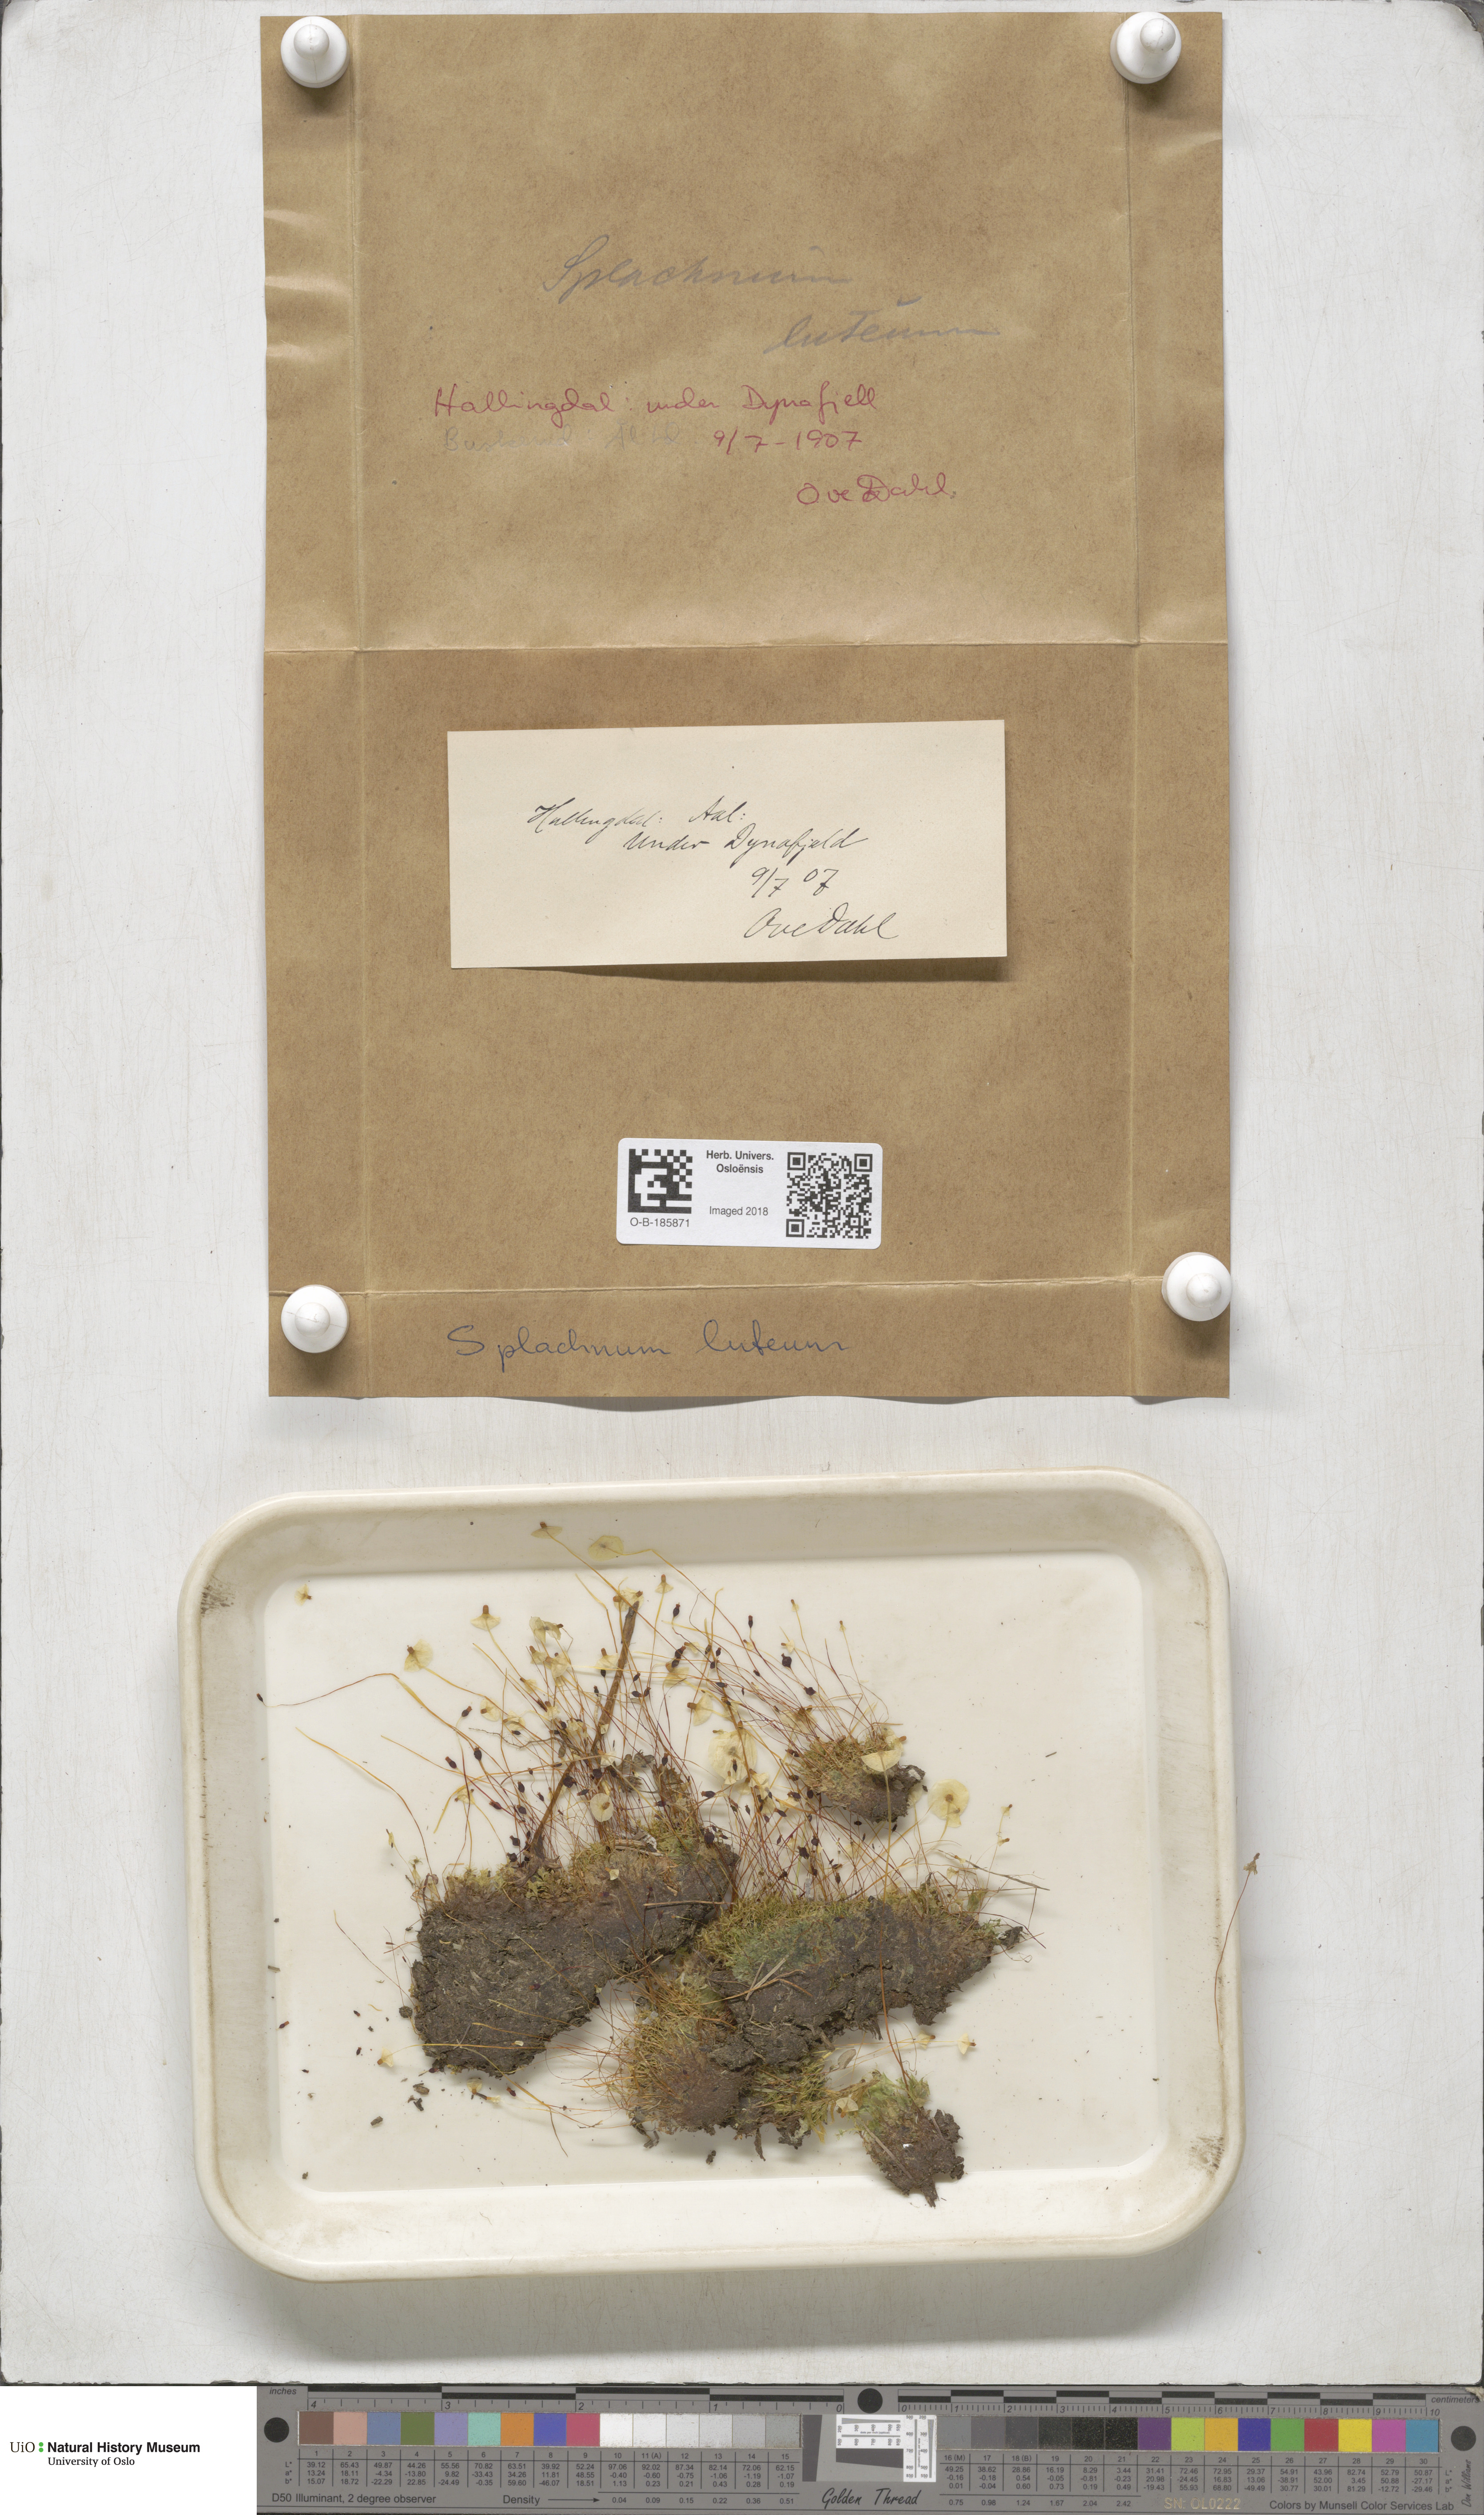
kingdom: Plantae
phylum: Bryophyta
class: Bryopsida
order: Splachnales
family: Splachnaceae
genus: Splachnum
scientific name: Splachnum luteum
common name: Yellow dung moss
